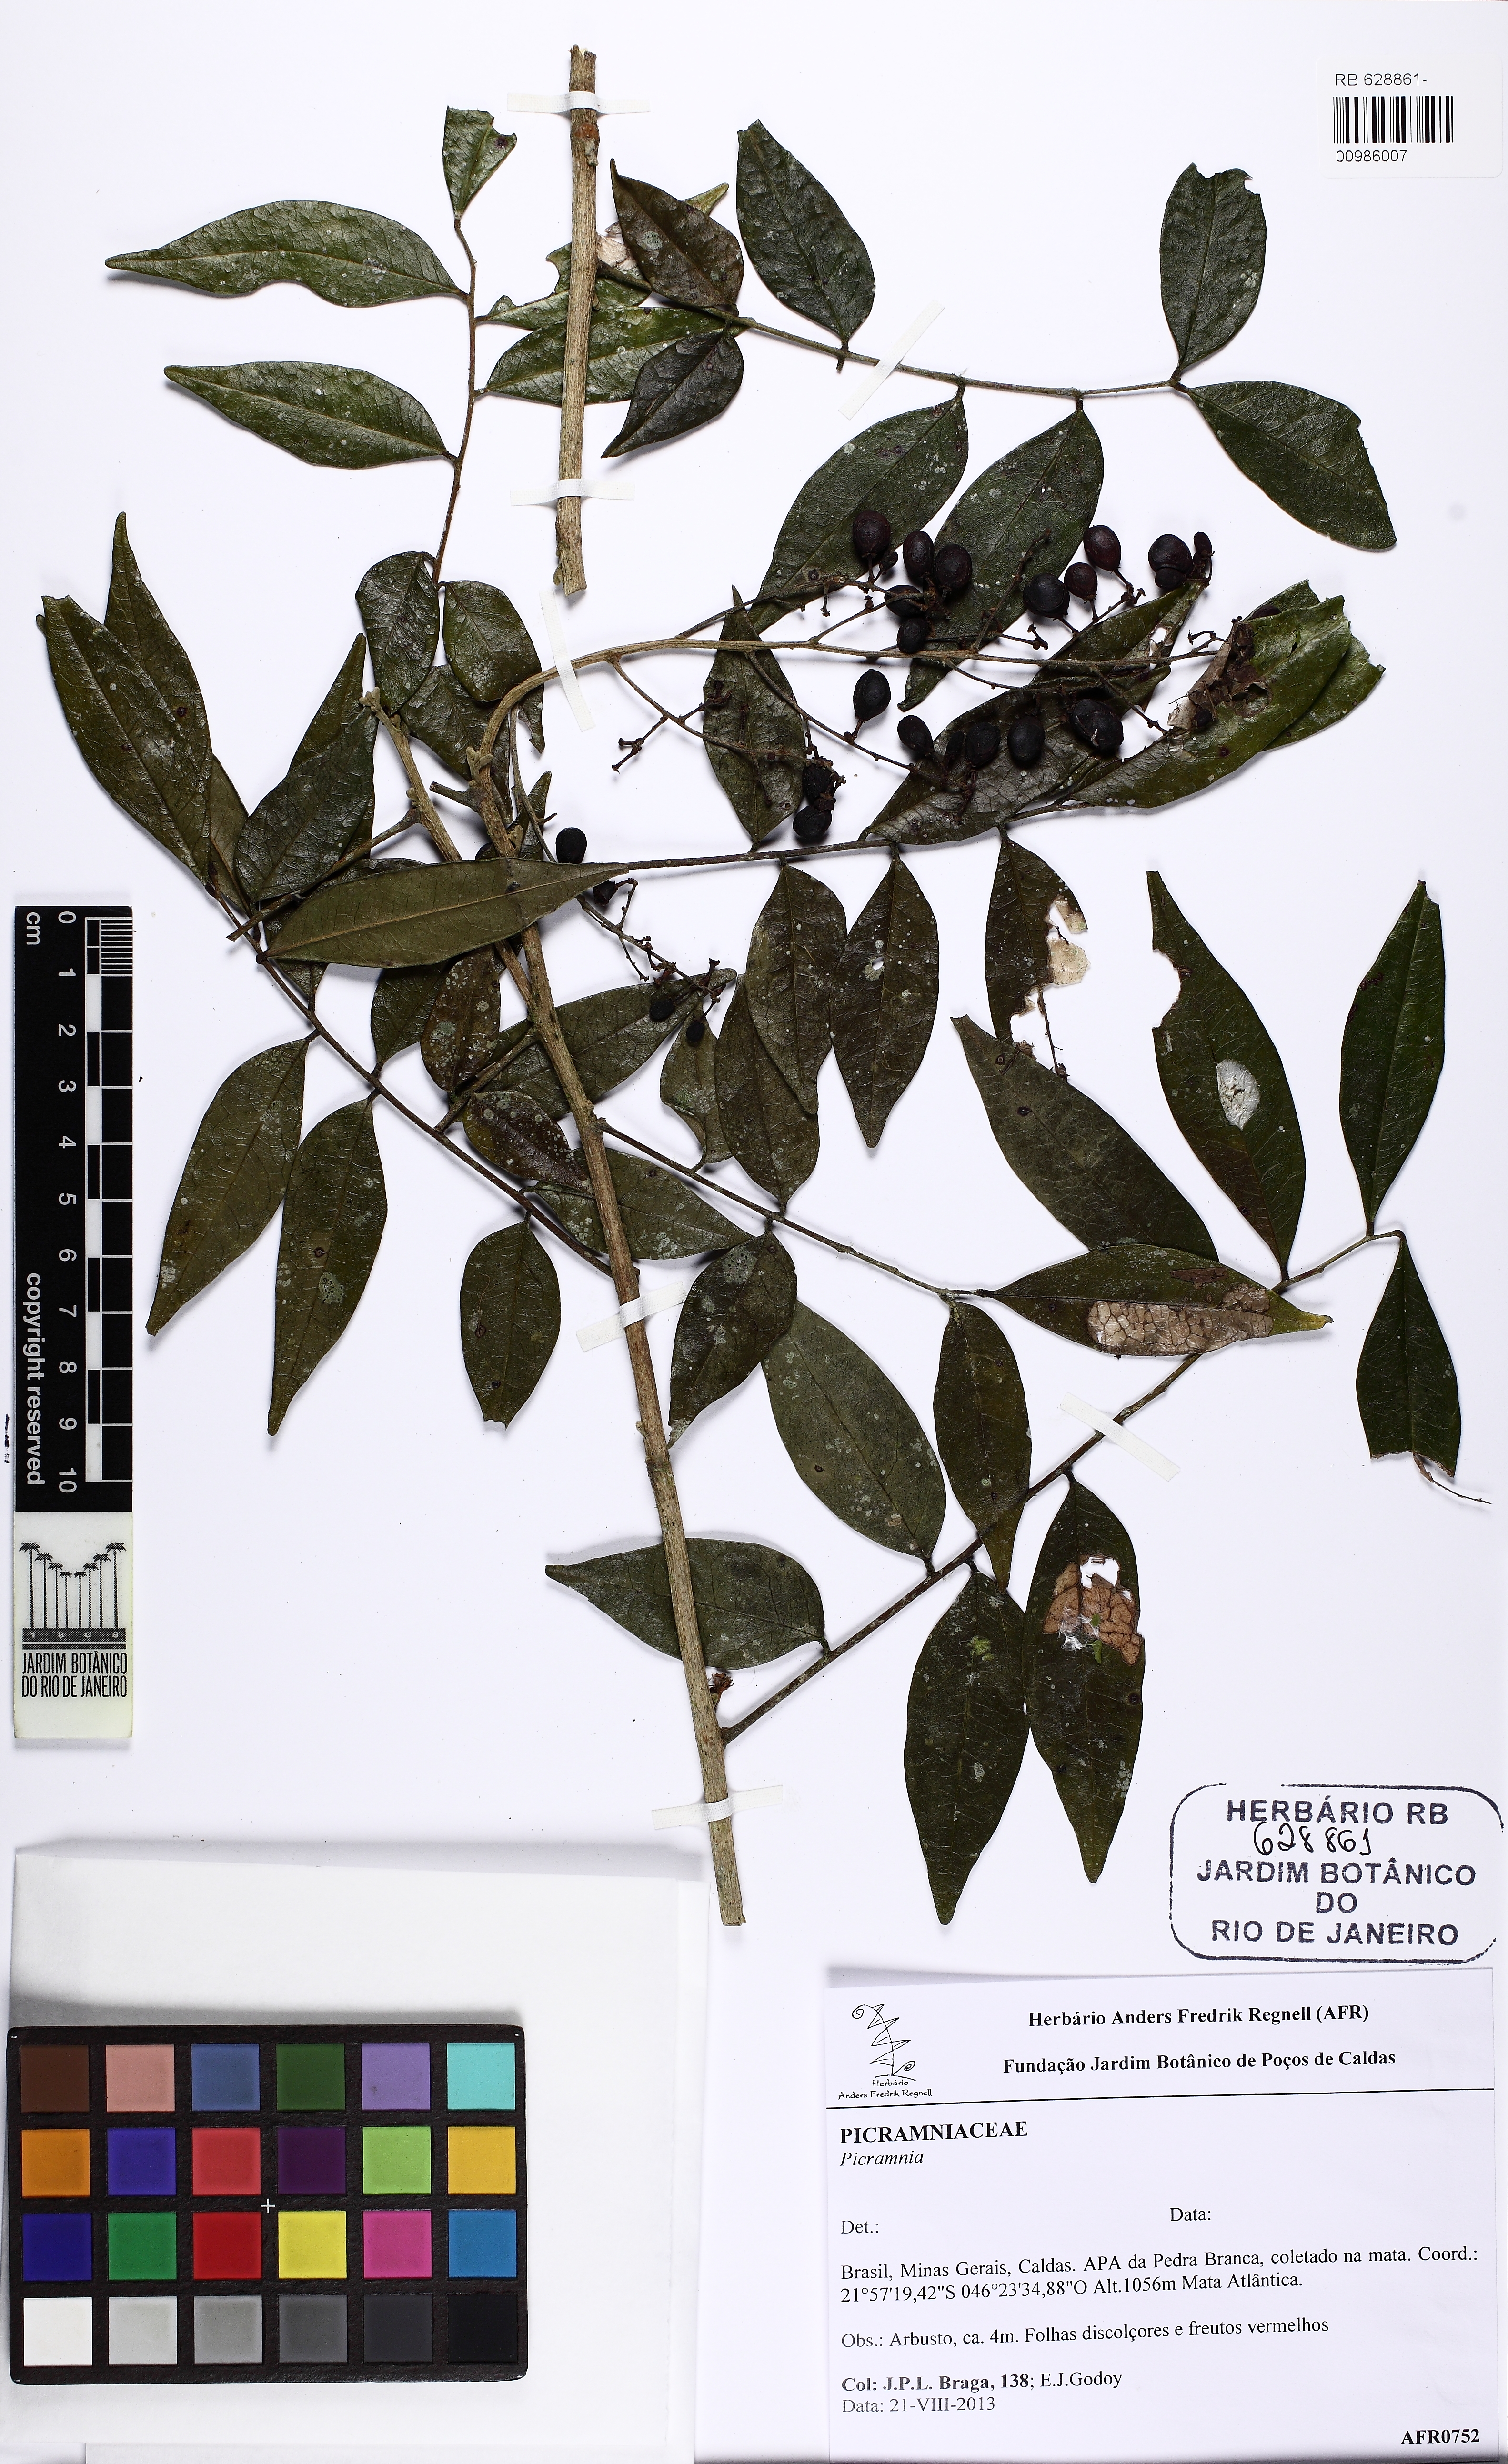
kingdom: Plantae
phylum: Tracheophyta
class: Magnoliopsida
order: Picramniales
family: Picramniaceae
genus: Picramnia
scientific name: Picramnia
